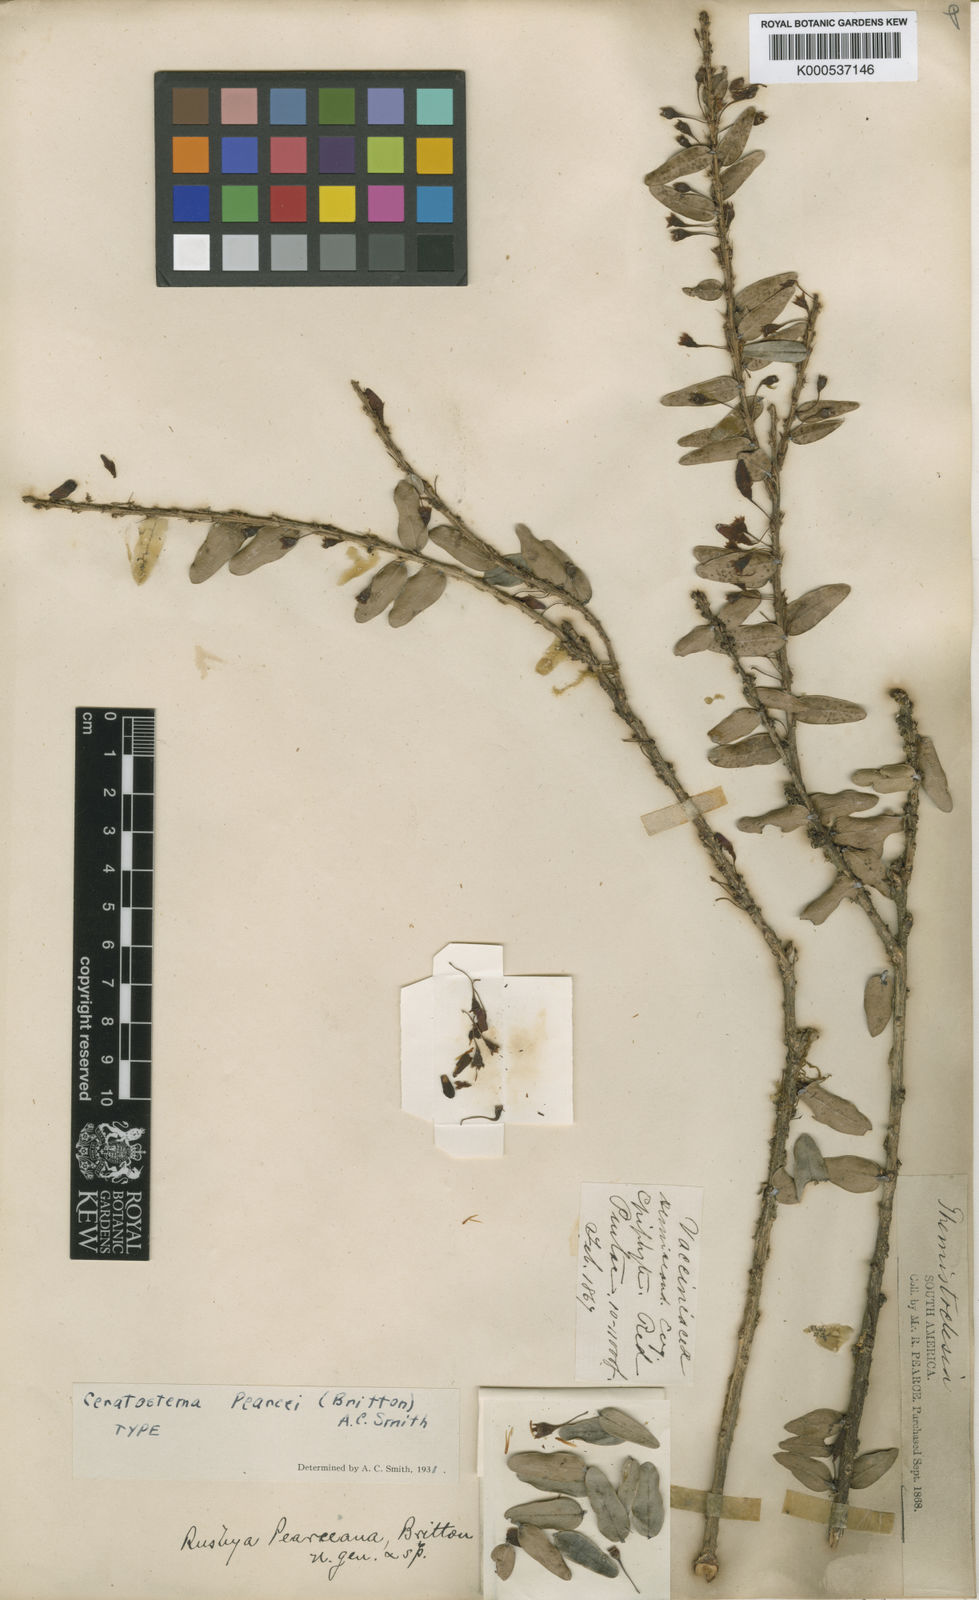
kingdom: Plantae
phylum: Tracheophyta
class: Magnoliopsida
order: Ericales
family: Ericaceae
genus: Demosthenesia
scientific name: Demosthenesia pearcei
